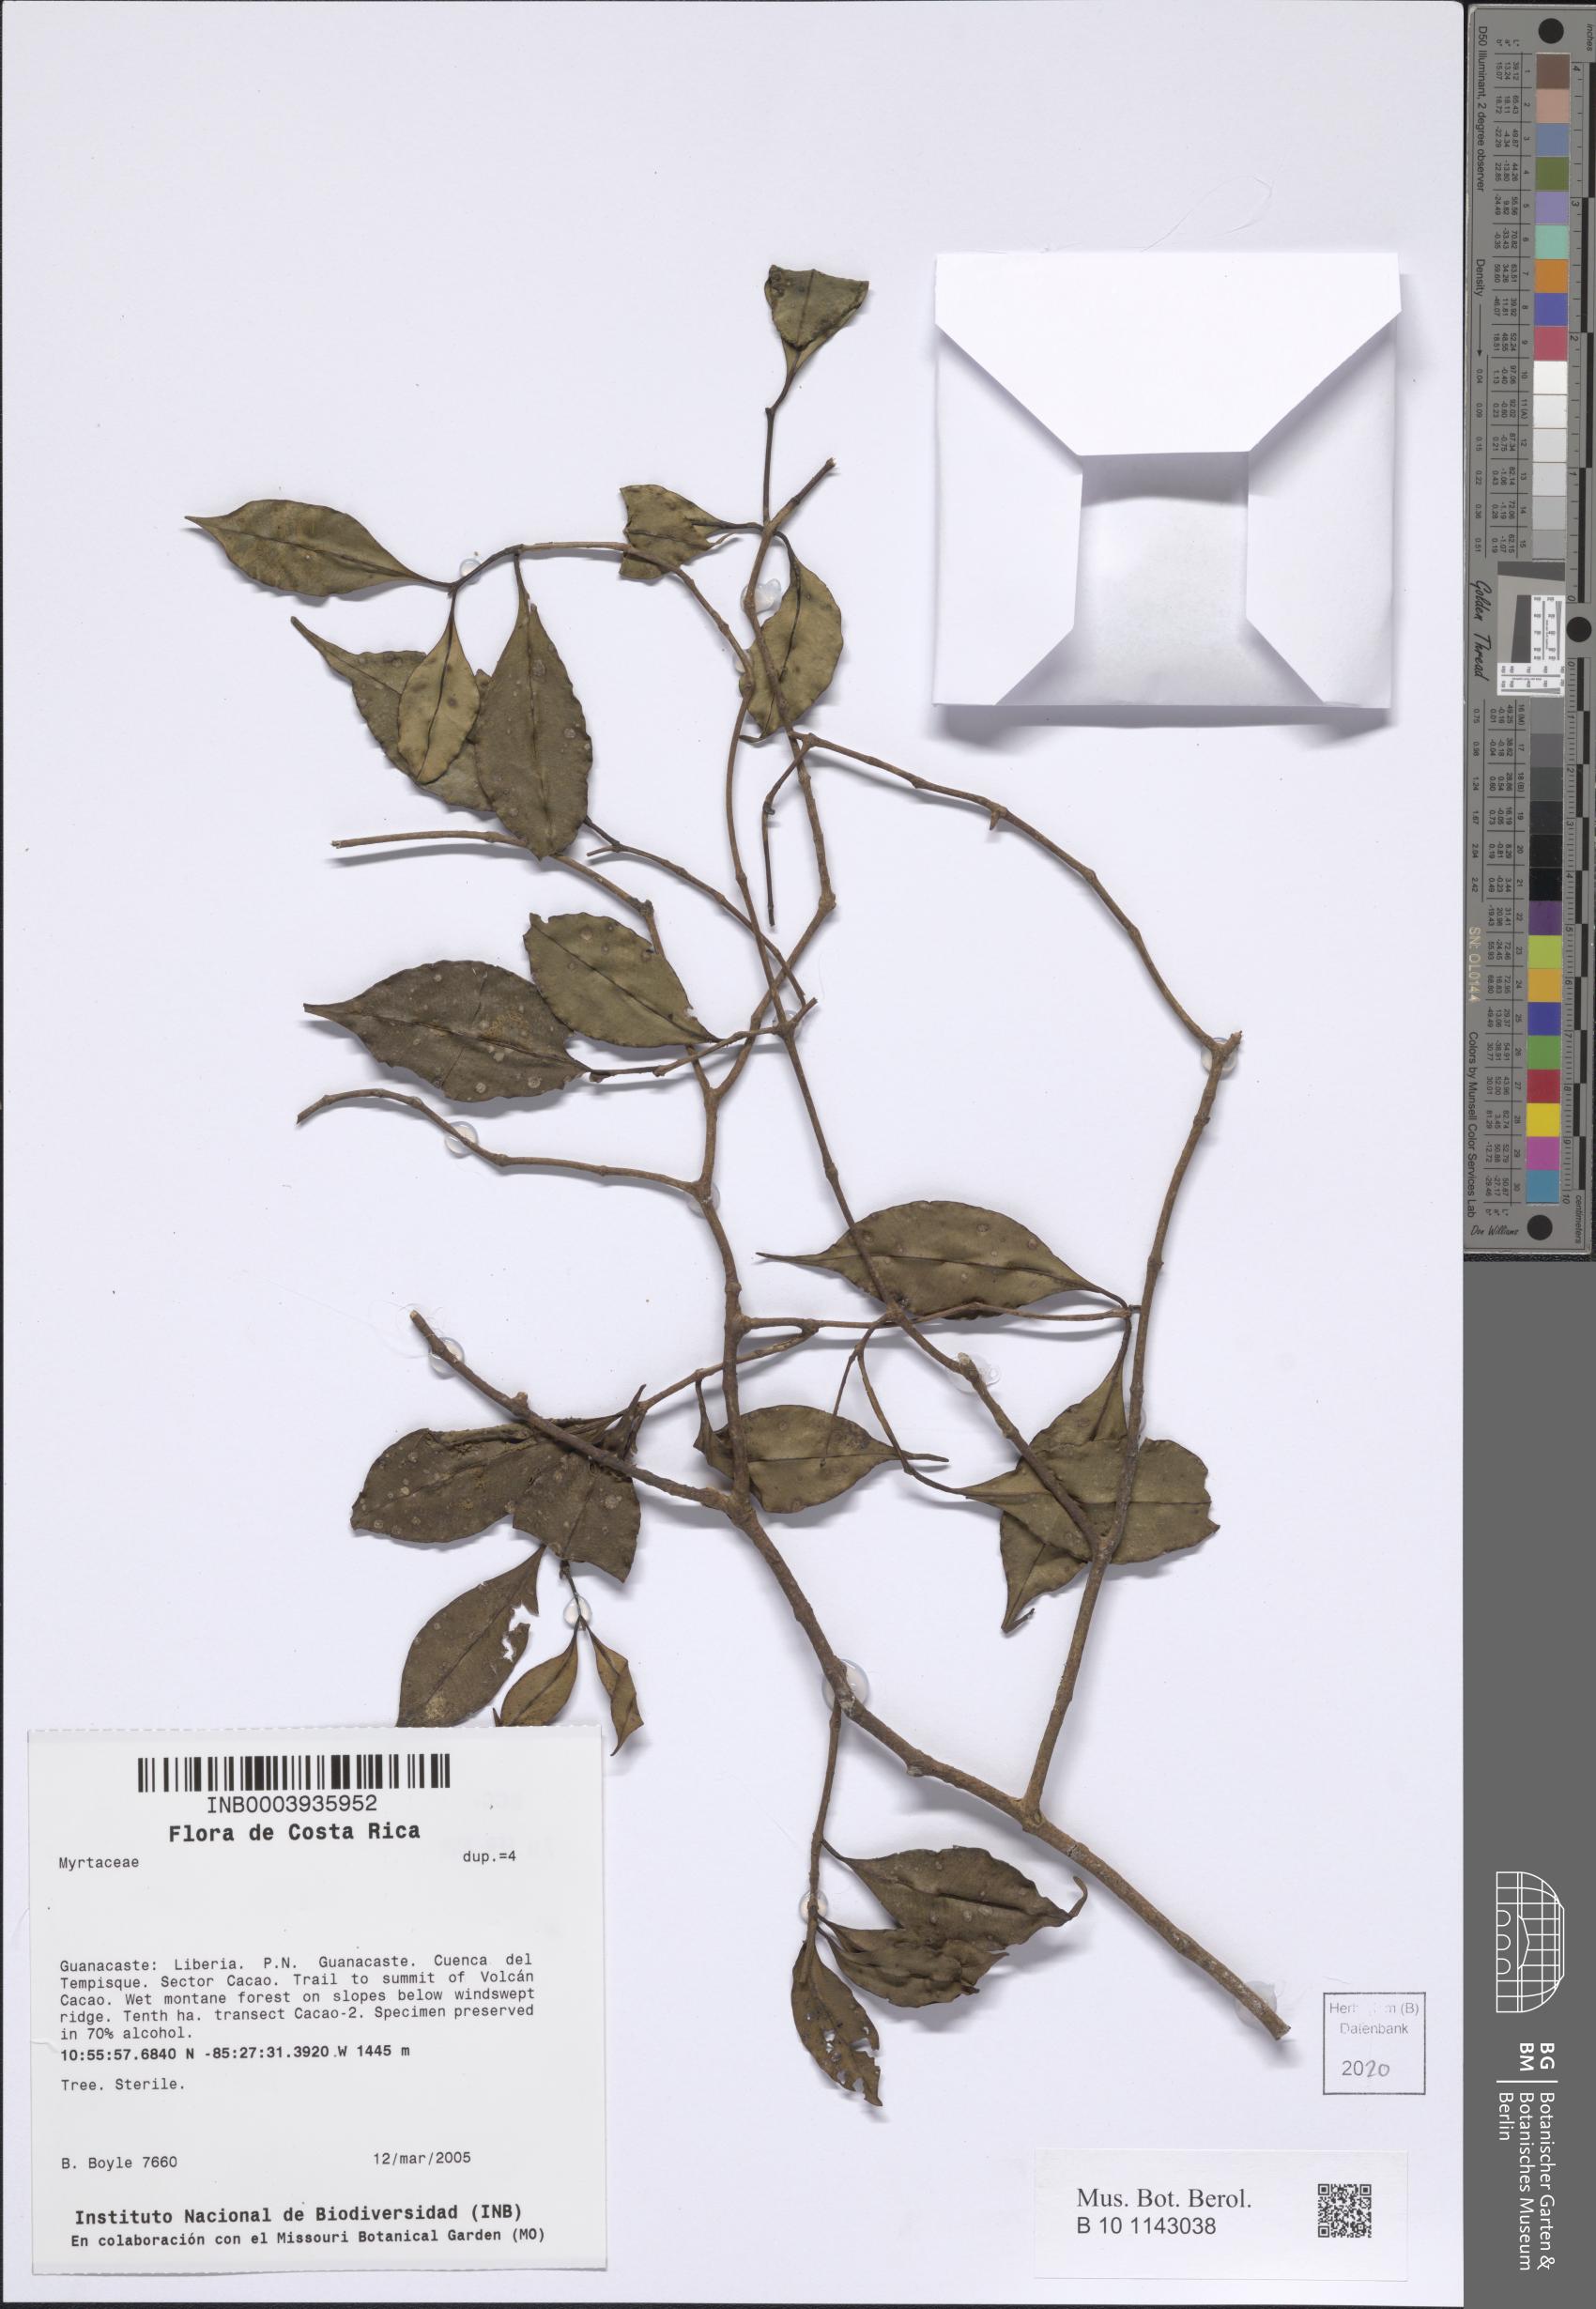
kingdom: Plantae
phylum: Tracheophyta
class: Magnoliopsida
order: Myrtales
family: Myrtaceae
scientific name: Myrtaceae
